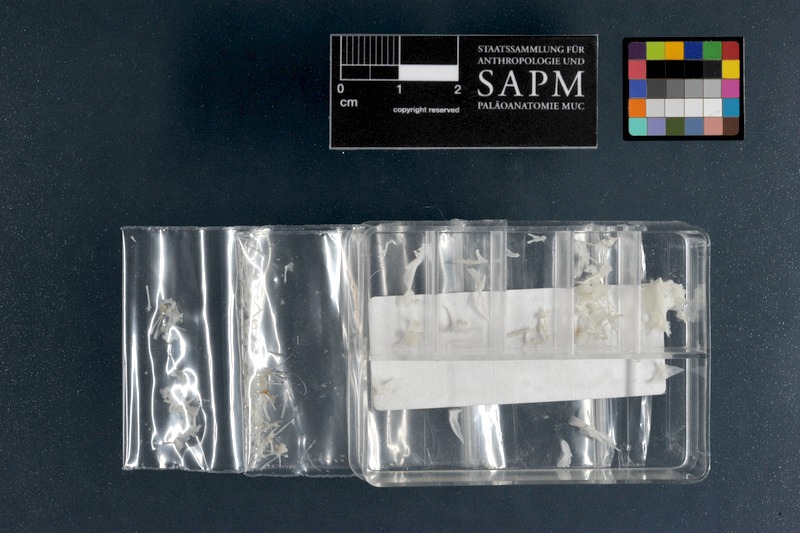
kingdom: Animalia
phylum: Chordata
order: Perciformes
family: Callionymidae
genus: Synchiropus
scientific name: Synchiropus splendidus
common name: Mandarinfish
